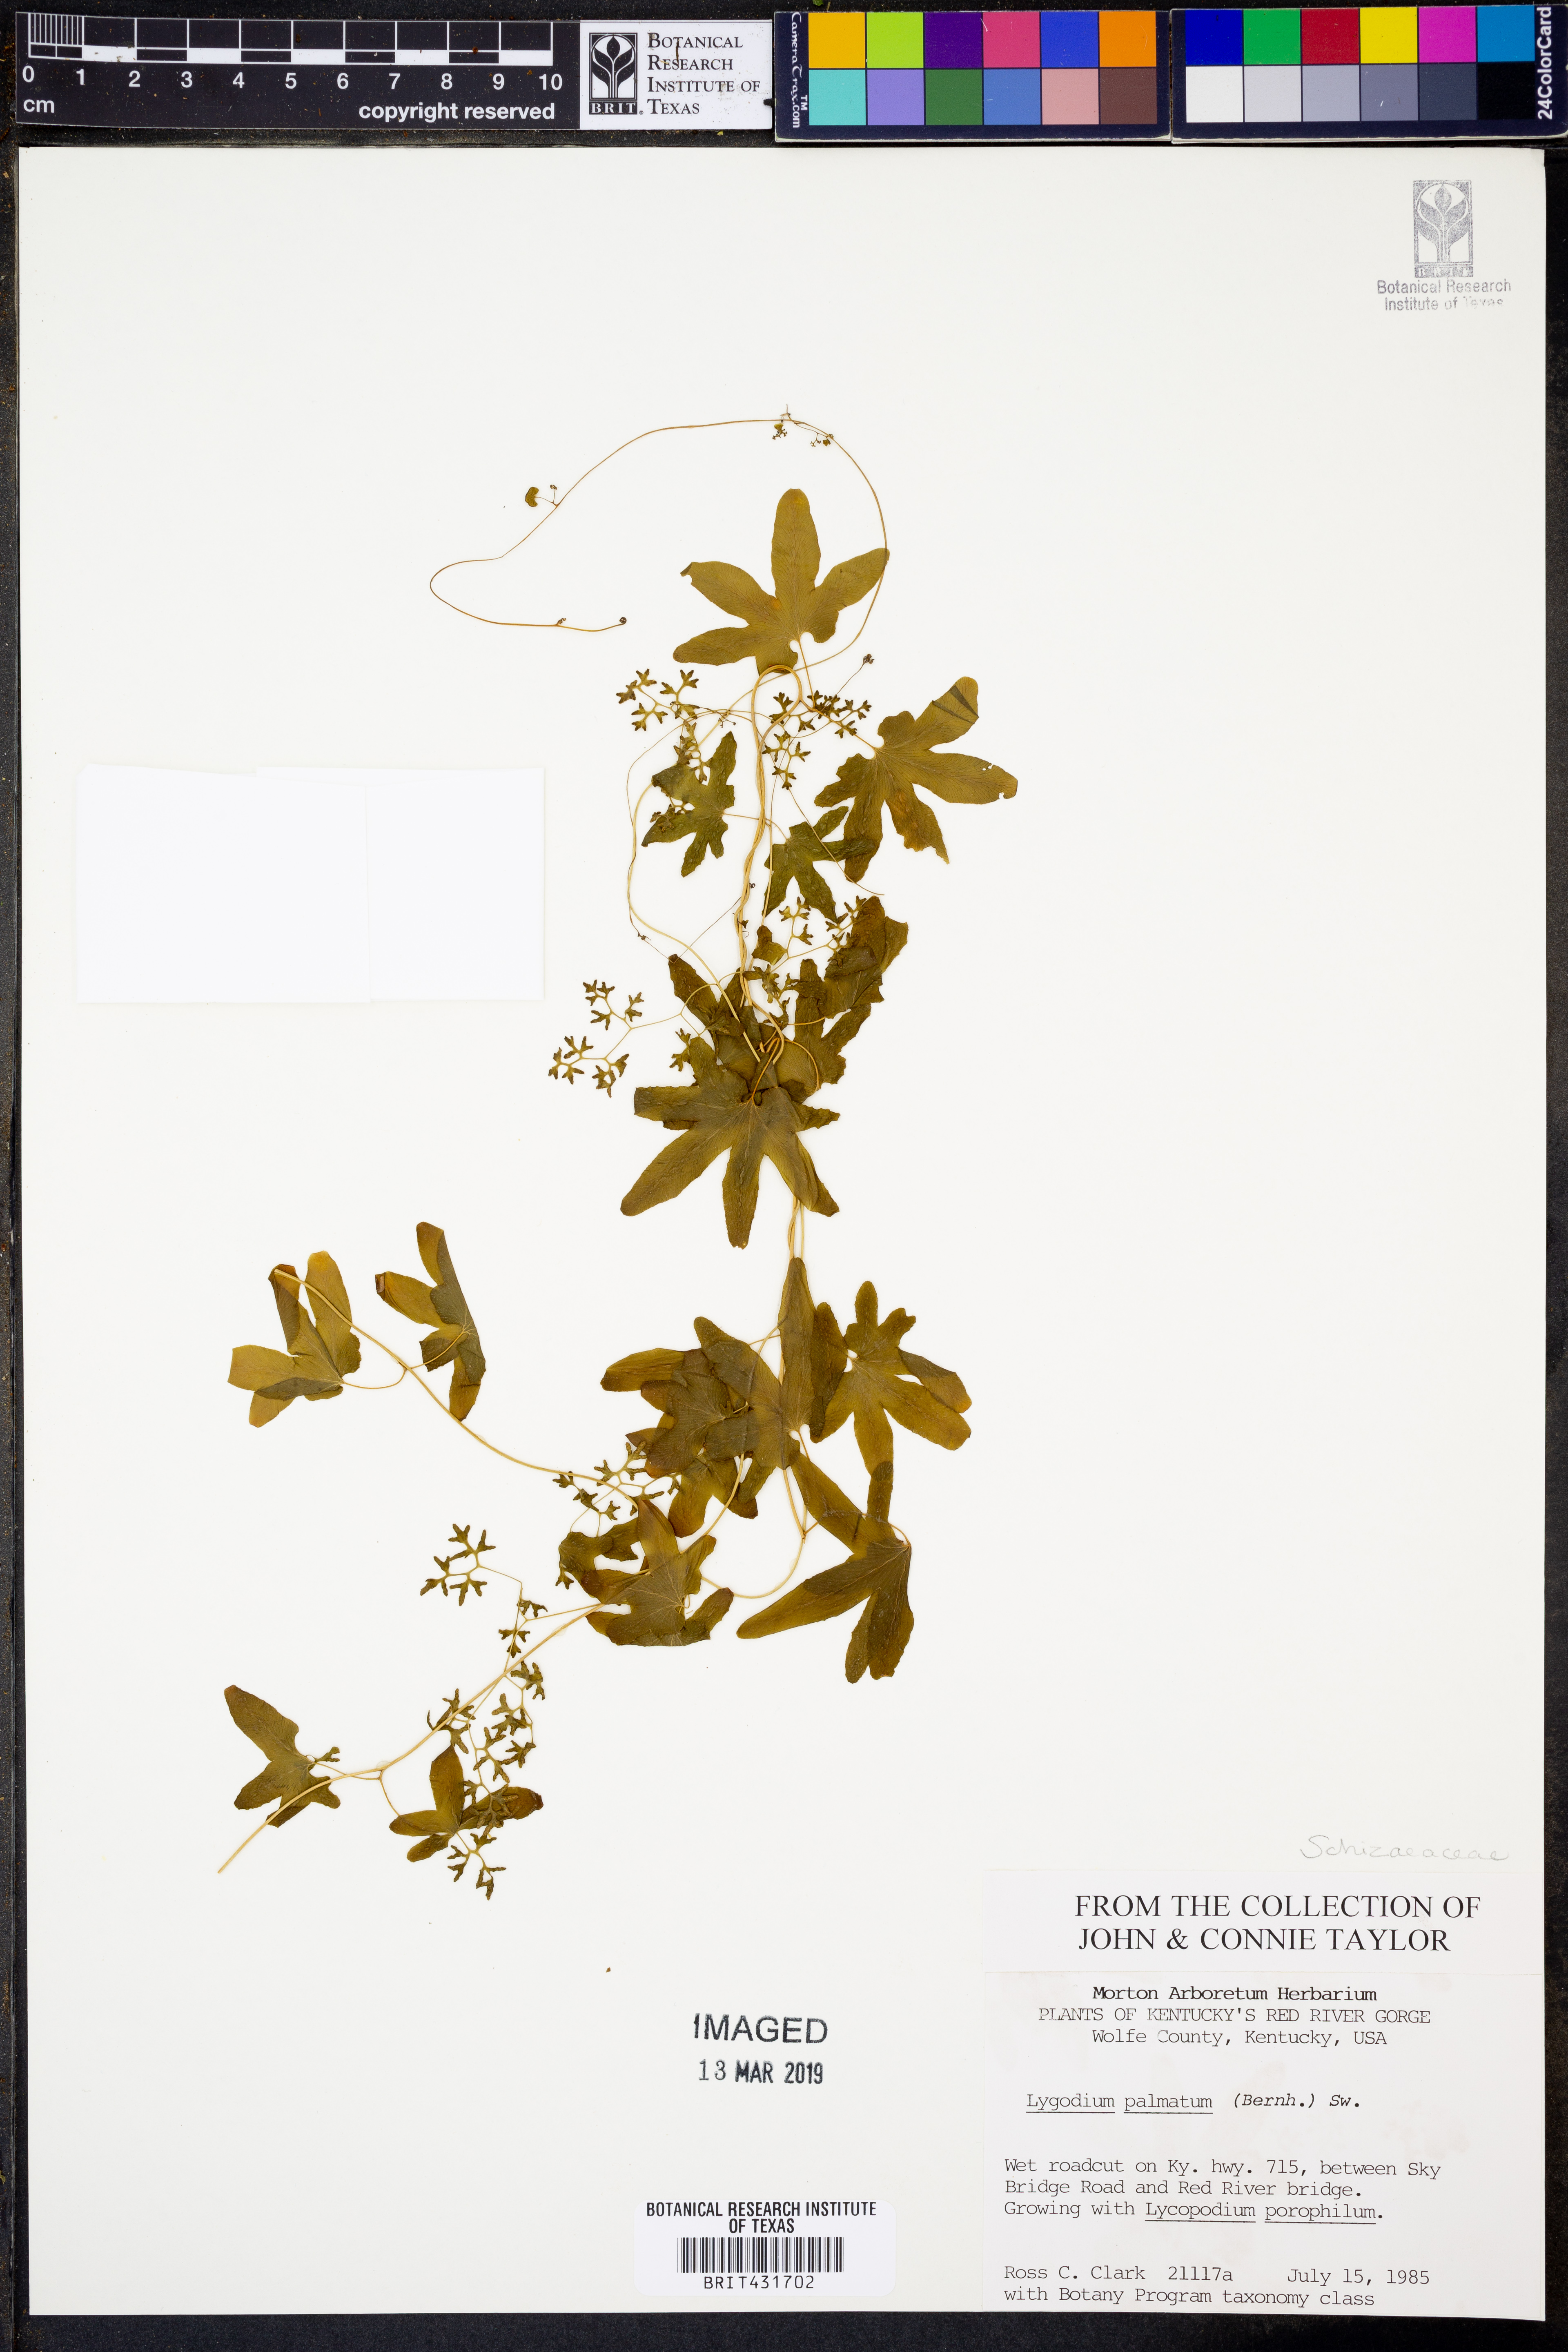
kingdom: Plantae
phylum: Tracheophyta
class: Polypodiopsida
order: Schizaeales
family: Lygodiaceae
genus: Lygodium
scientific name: Lygodium palmatum
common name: American climbing fern
